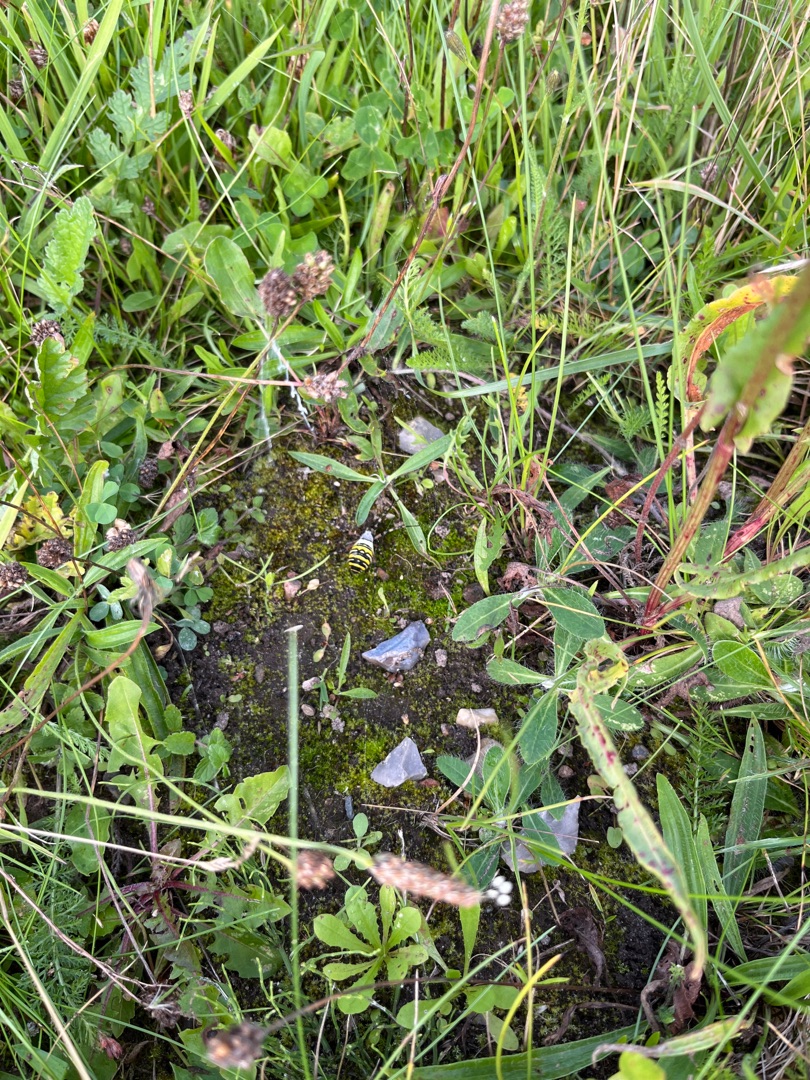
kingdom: Animalia
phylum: Arthropoda
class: Arachnida
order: Araneae
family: Araneidae
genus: Argiope
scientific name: Argiope bruennichi
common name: Hvepseedderkop
